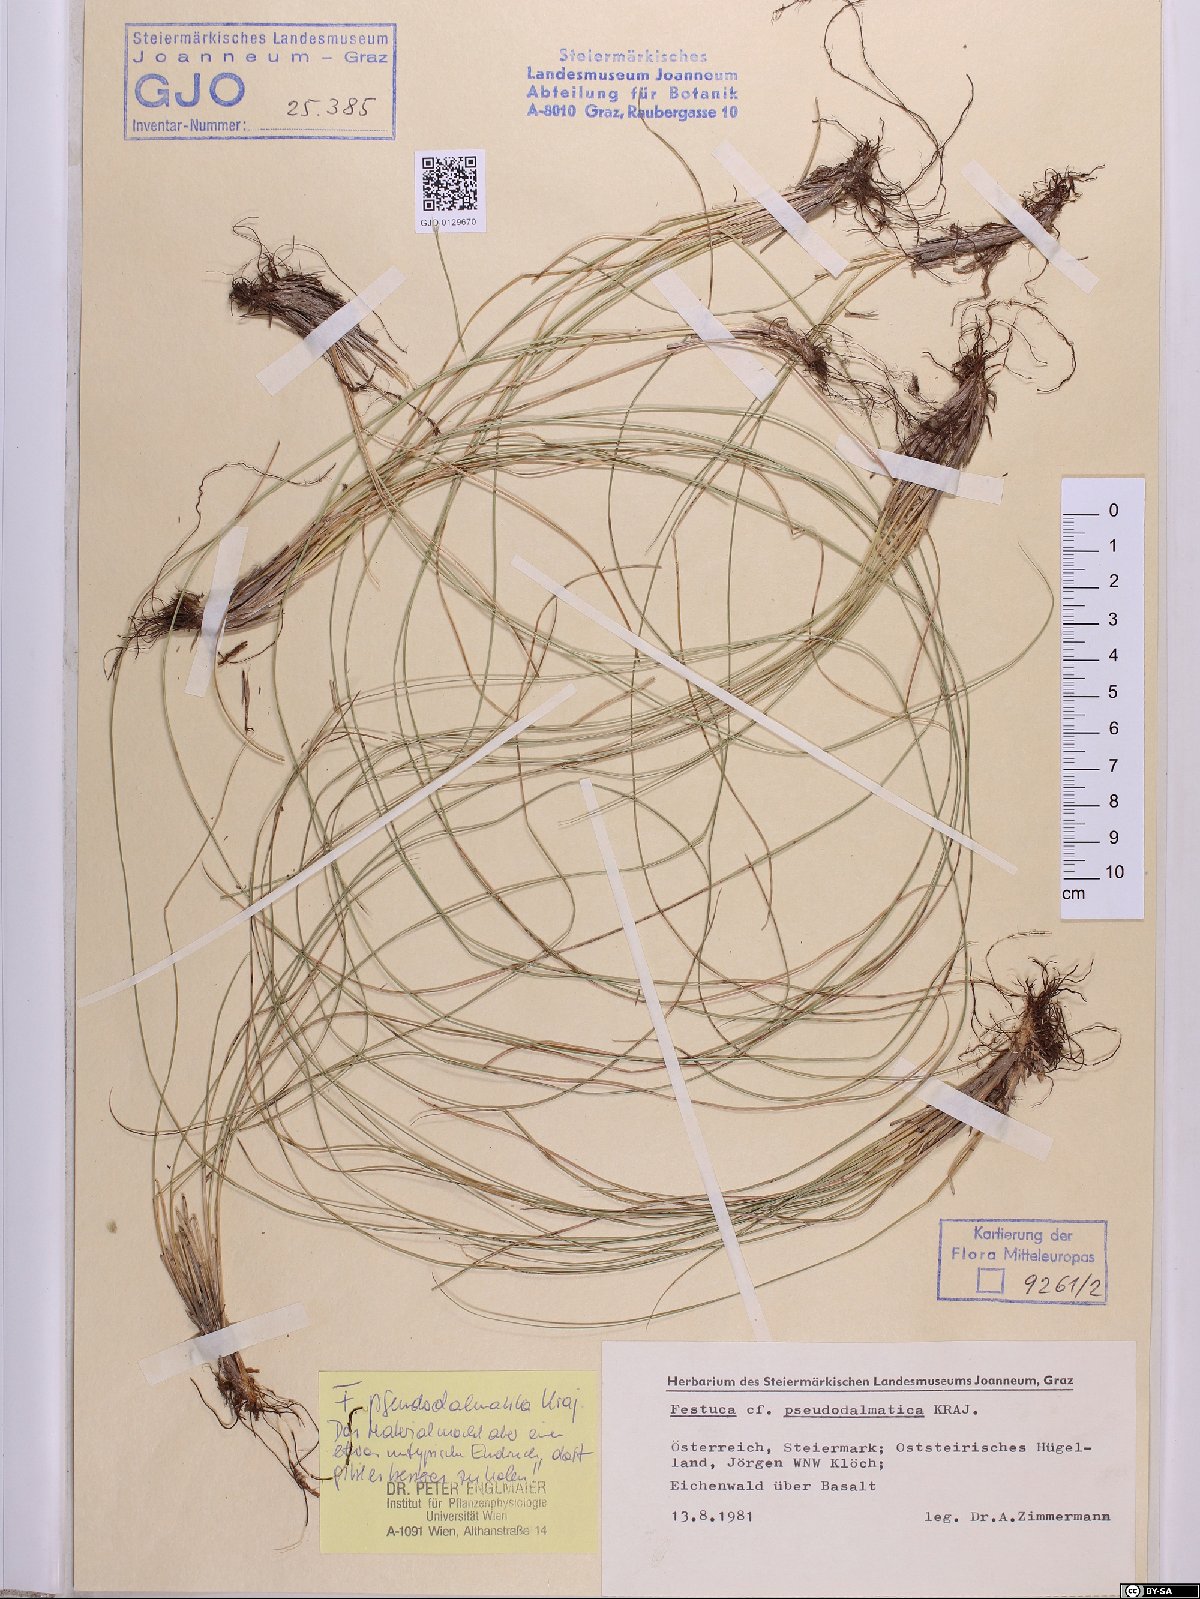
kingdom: Plantae
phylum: Tracheophyta
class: Liliopsida
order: Poales
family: Poaceae
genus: Festuca
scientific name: Festuca pseudodalmatica
